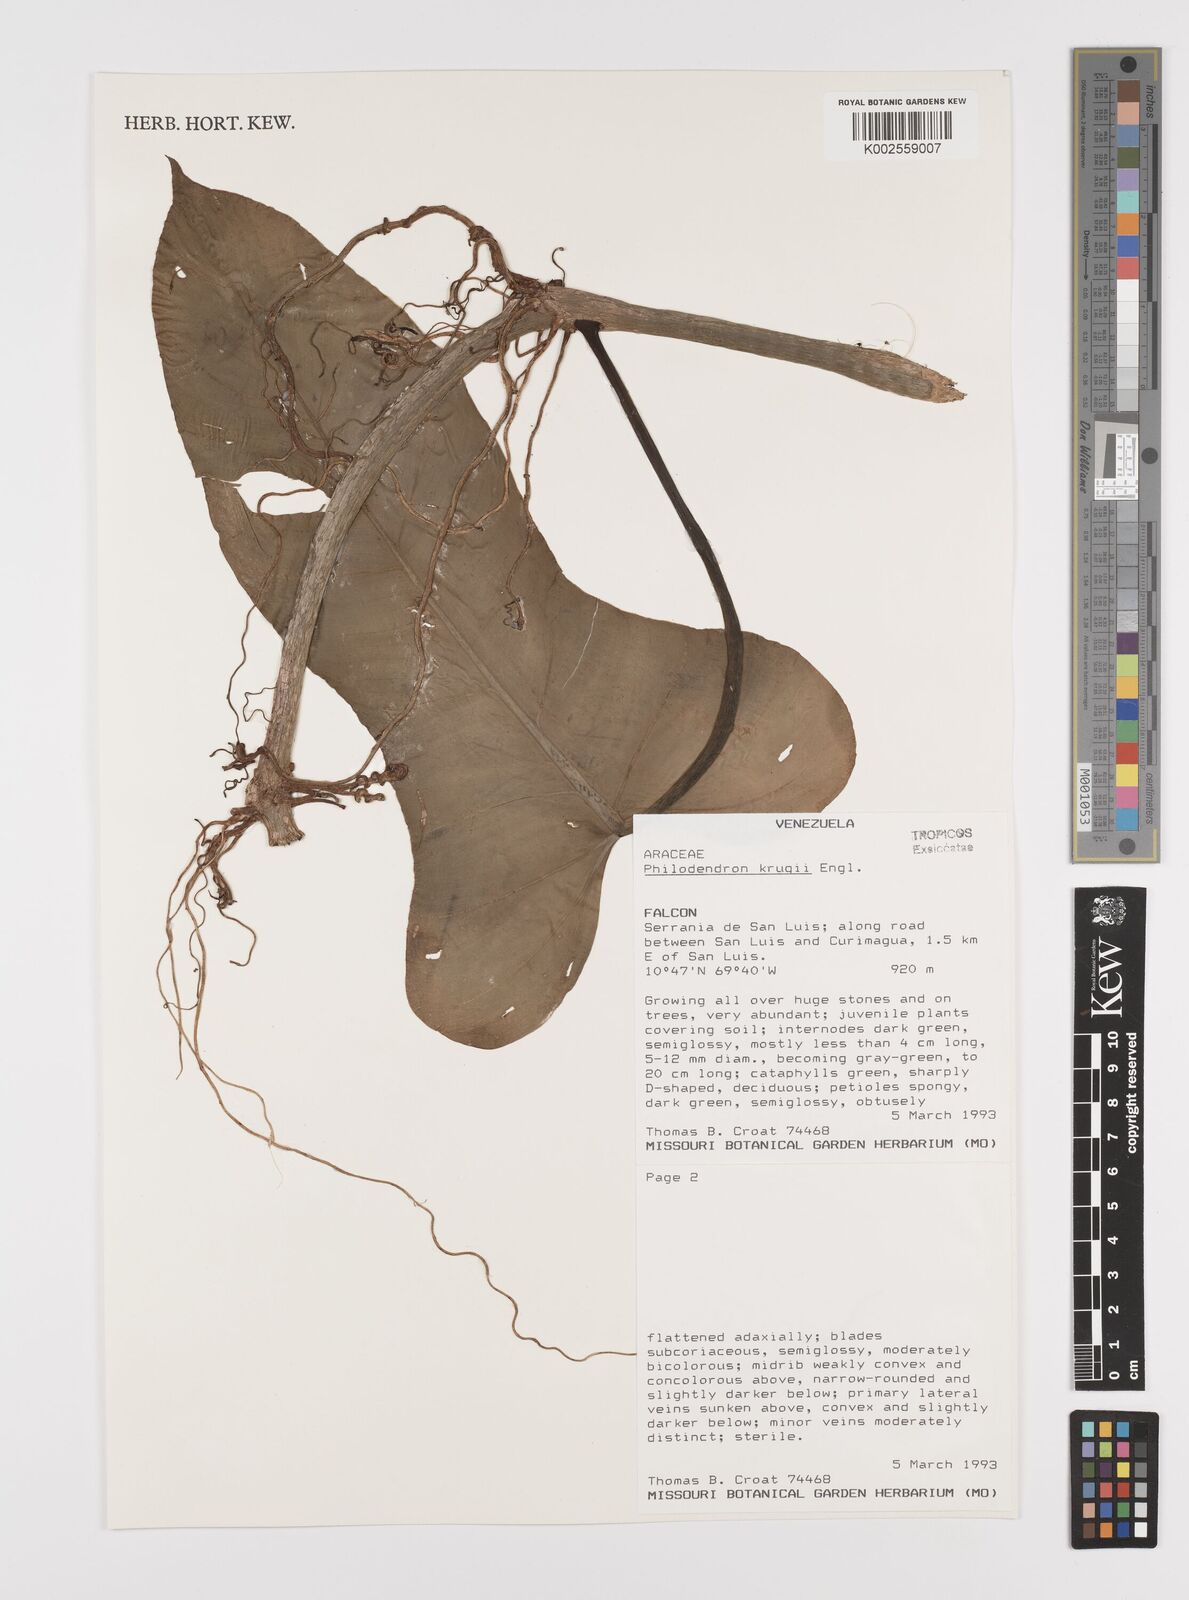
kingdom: Plantae
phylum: Tracheophyta
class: Liliopsida
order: Alismatales
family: Araceae
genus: Philodendron
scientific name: Philodendron krugii
